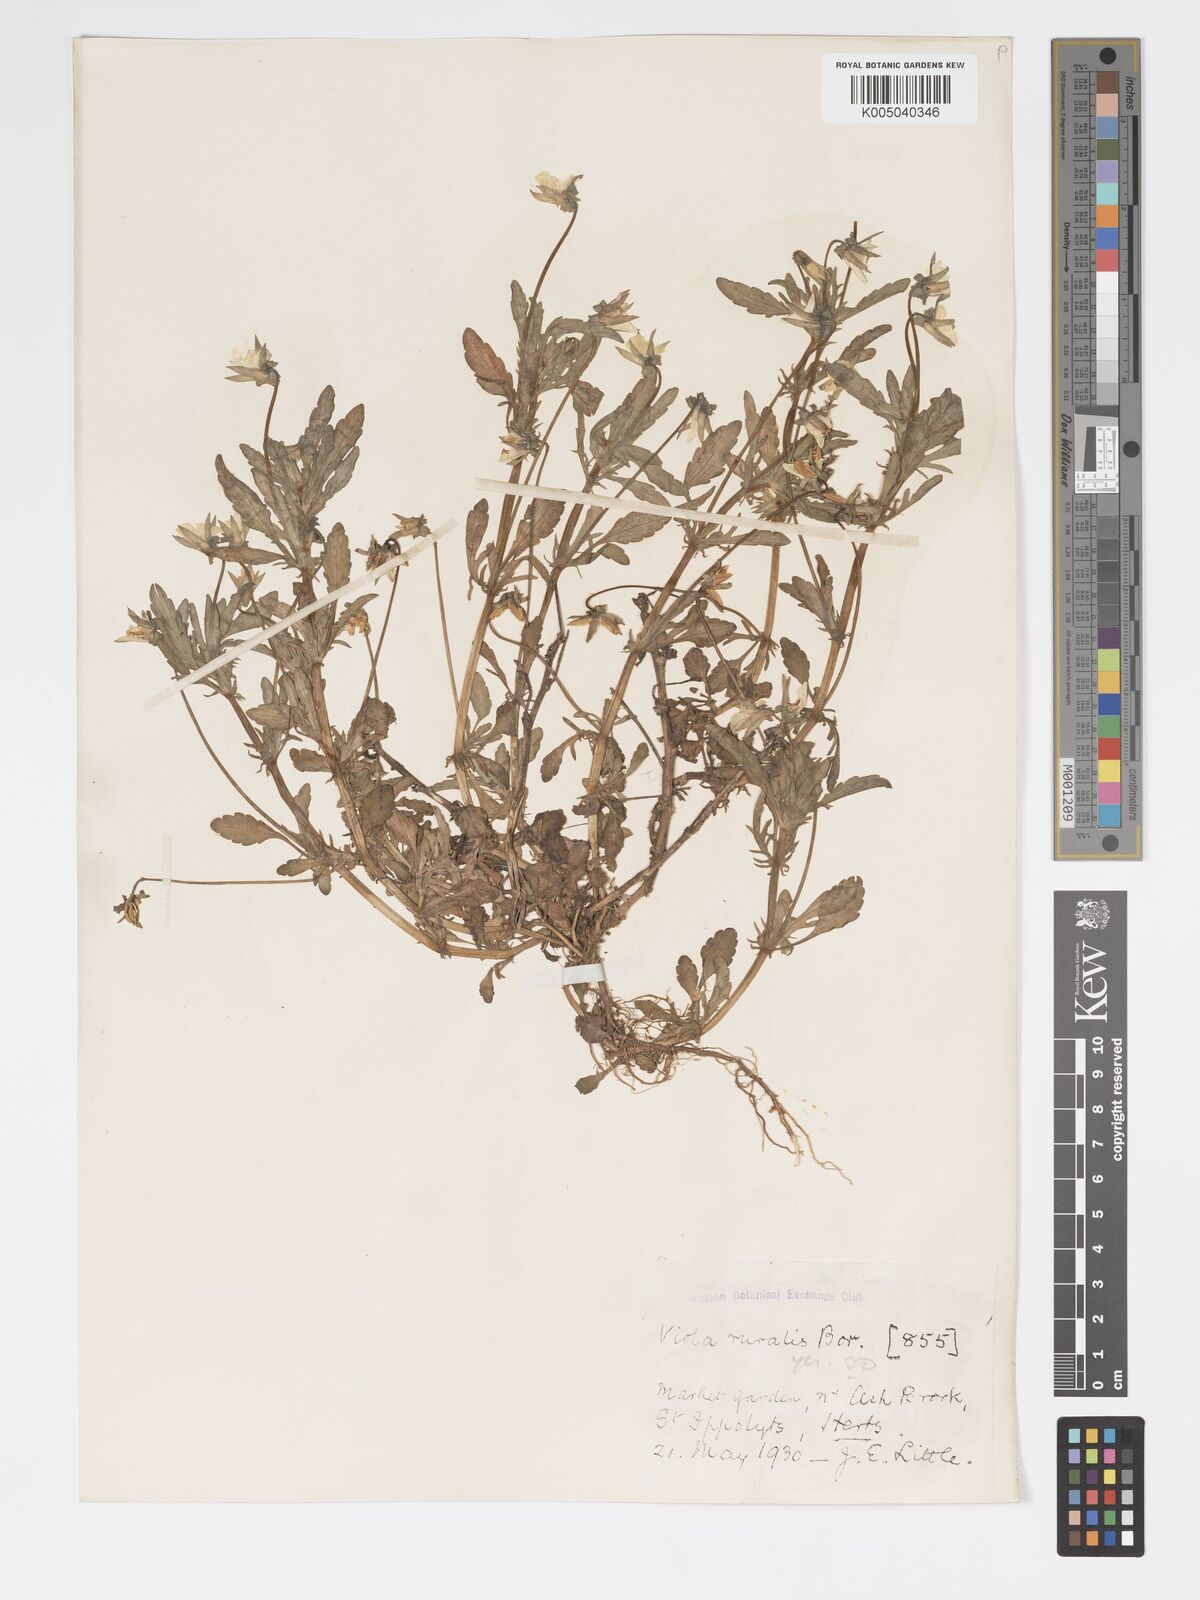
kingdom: Plantae
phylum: Tracheophyta
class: Magnoliopsida
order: Malpighiales
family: Violaceae
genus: Viola
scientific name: Viola arvensis
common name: Field pansy
